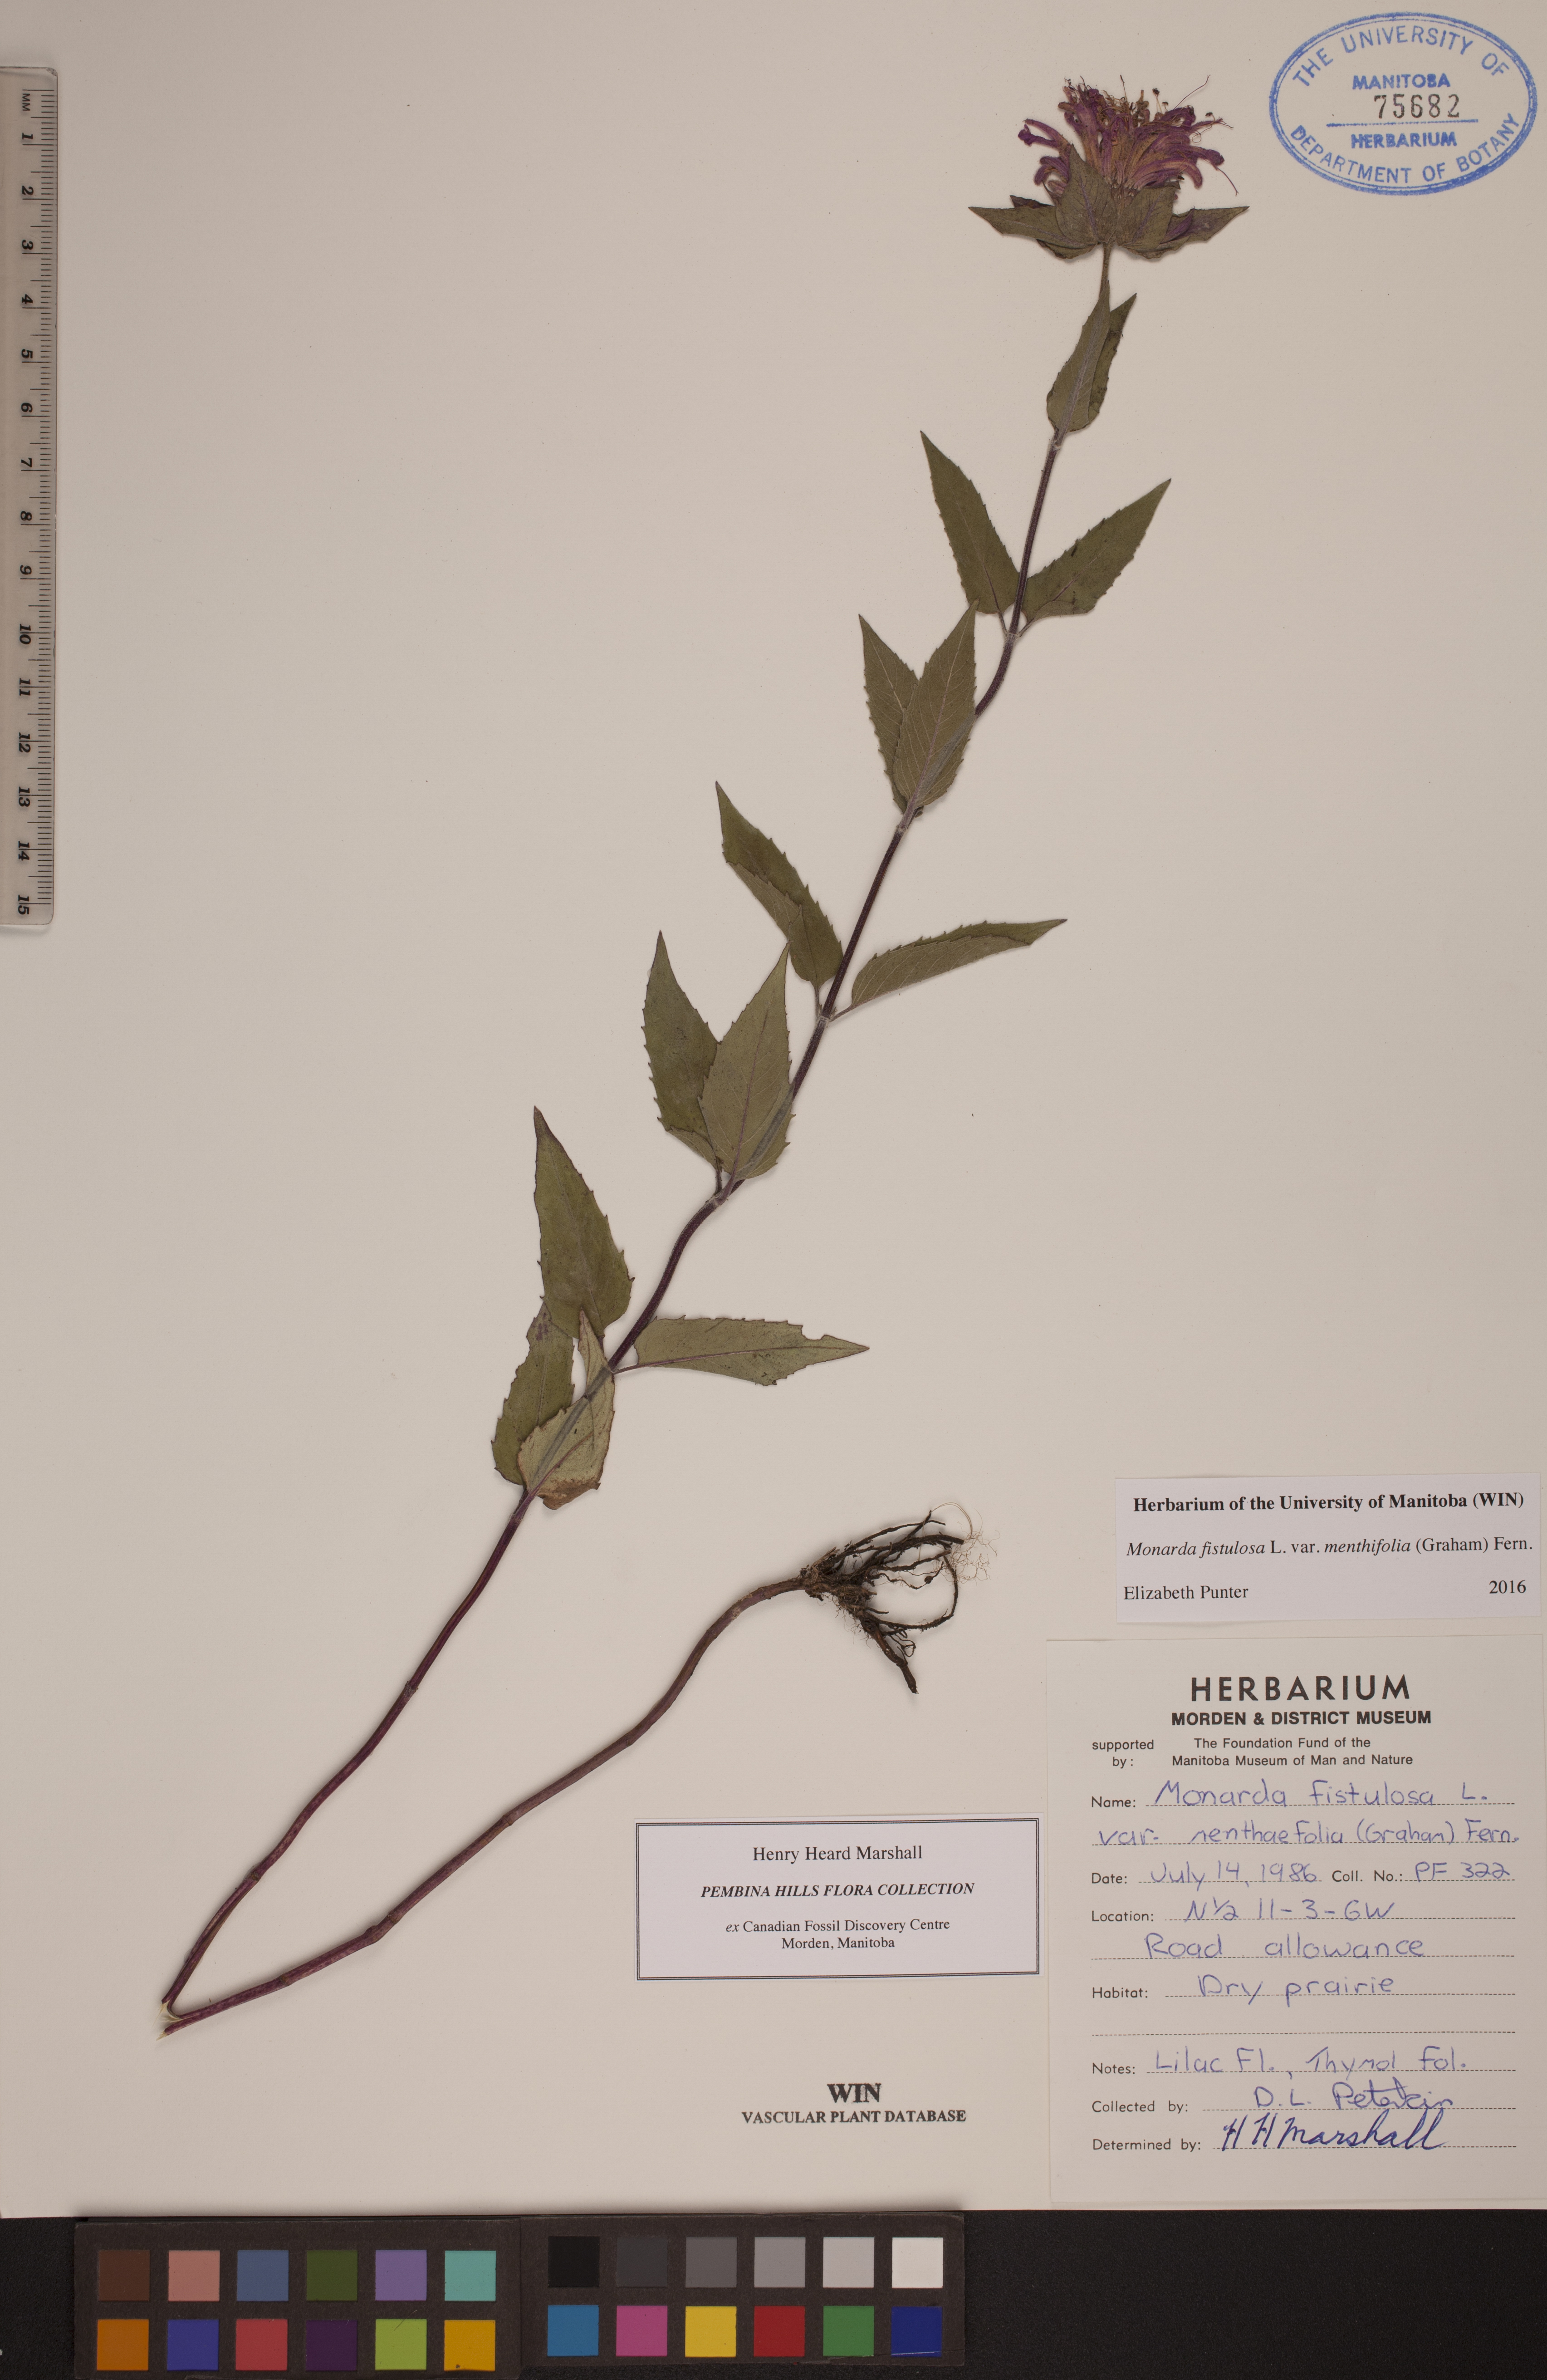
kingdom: Plantae
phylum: Tracheophyta
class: Magnoliopsida
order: Lamiales
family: Lamiaceae
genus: Monarda
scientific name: Monarda fistulosa
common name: Purple beebalm
